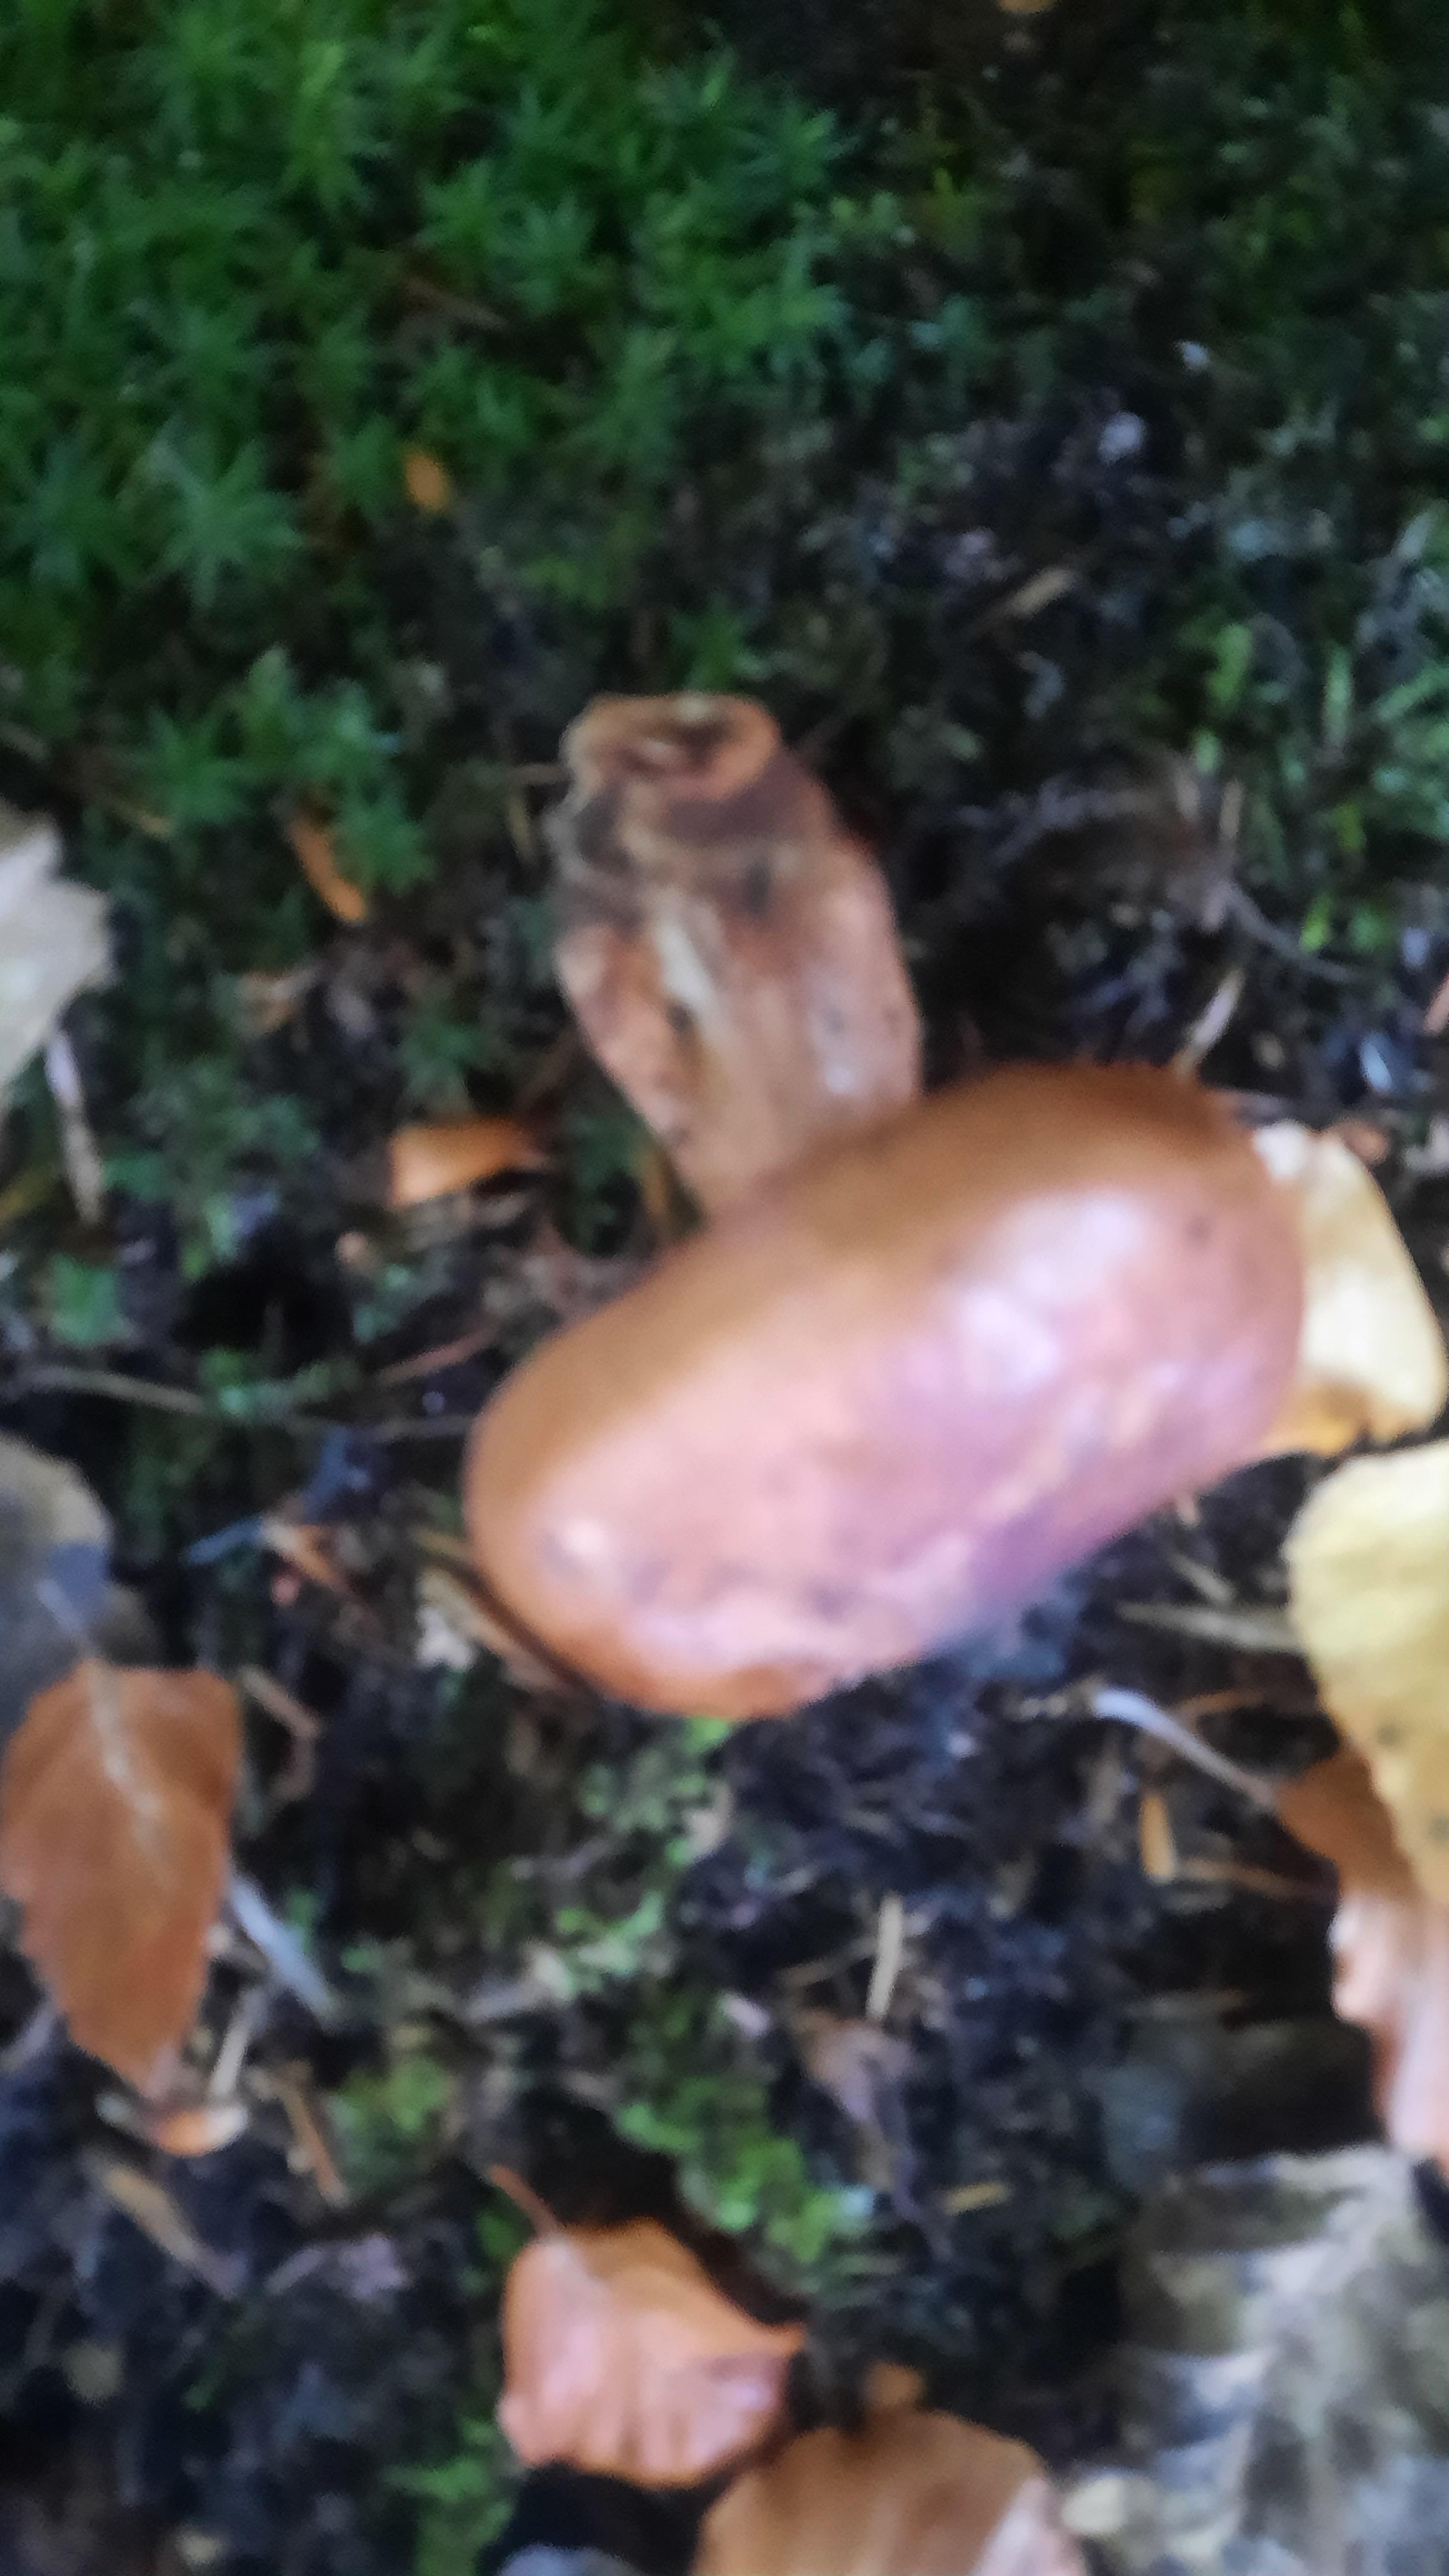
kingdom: Fungi
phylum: Basidiomycota
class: Agaricomycetes
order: Agaricales
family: Tricholomataceae
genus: Tricholoma
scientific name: Tricholoma fulvum
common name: birke-ridderhat
